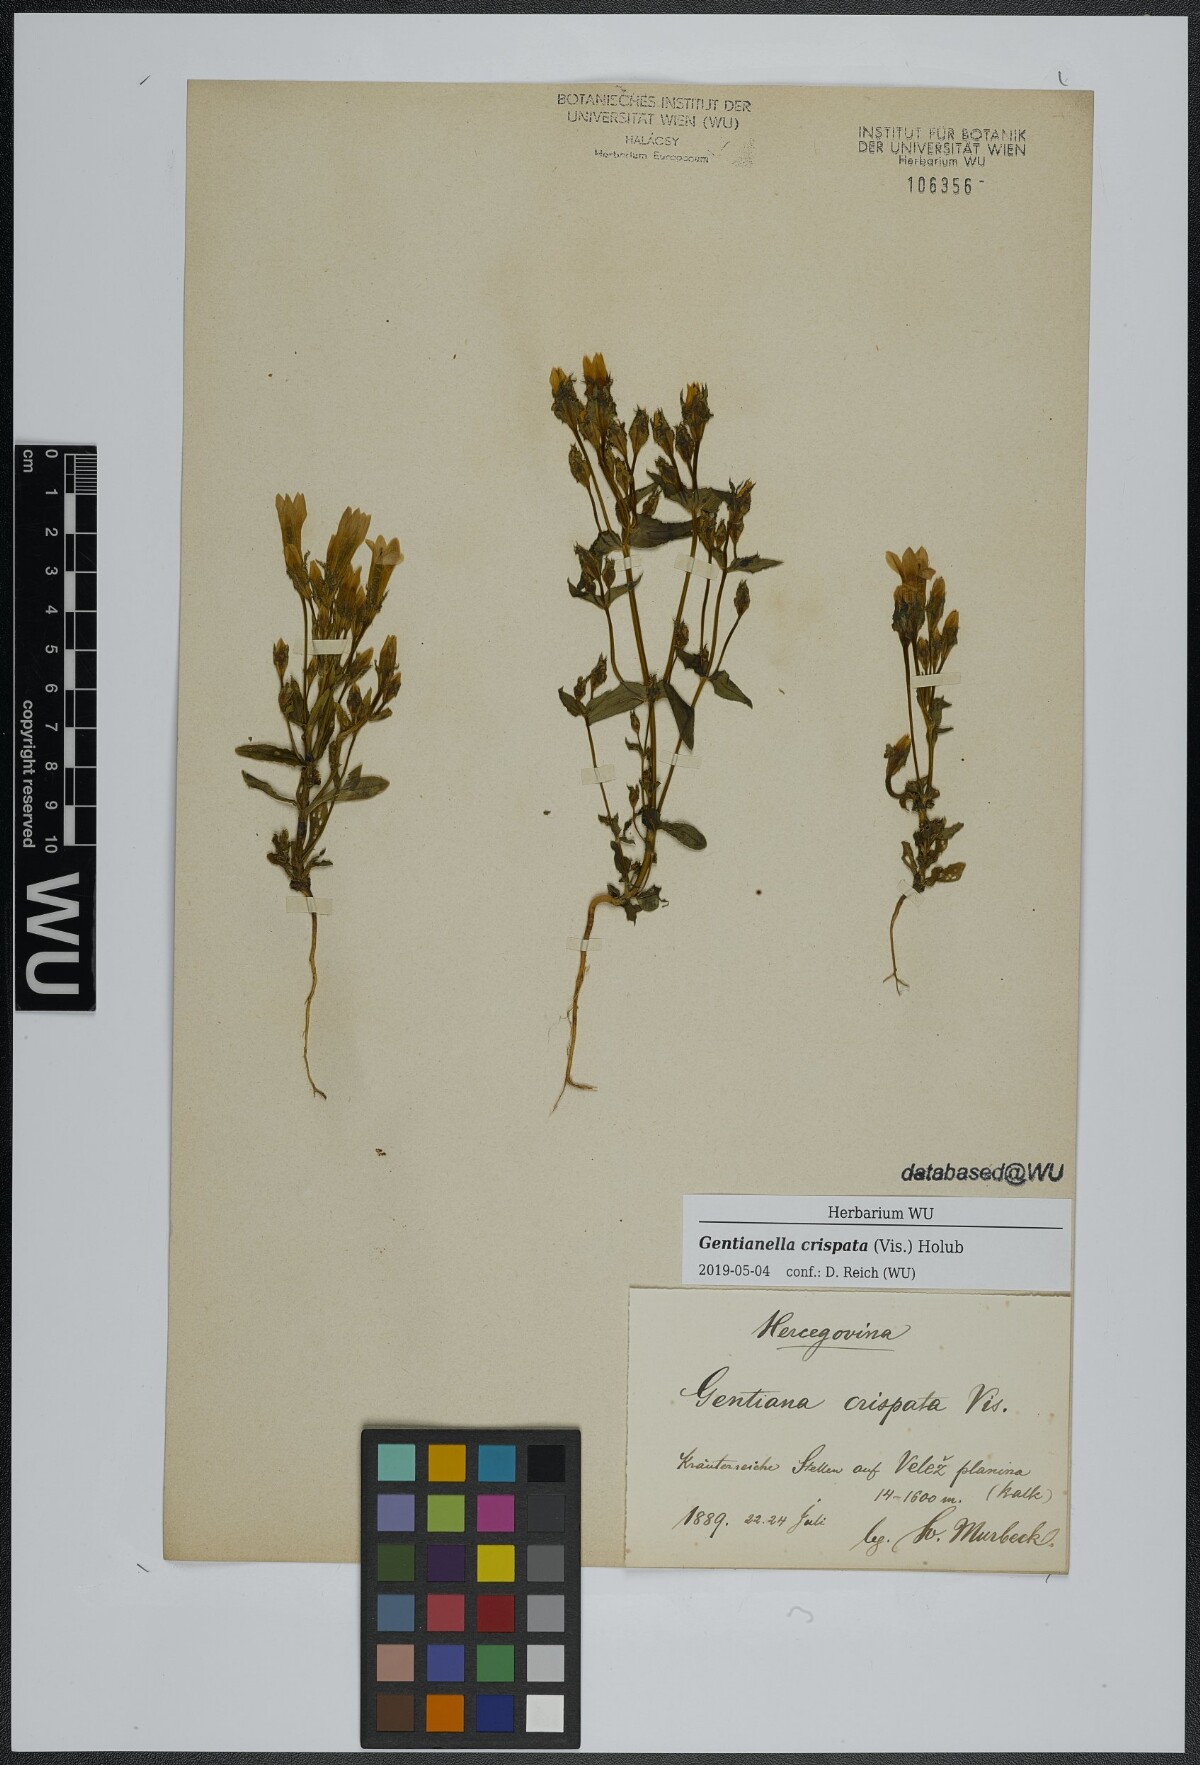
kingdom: Plantae
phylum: Tracheophyta
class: Magnoliopsida
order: Gentianales
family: Gentianaceae
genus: Gentianella
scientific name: Gentianella crispata
